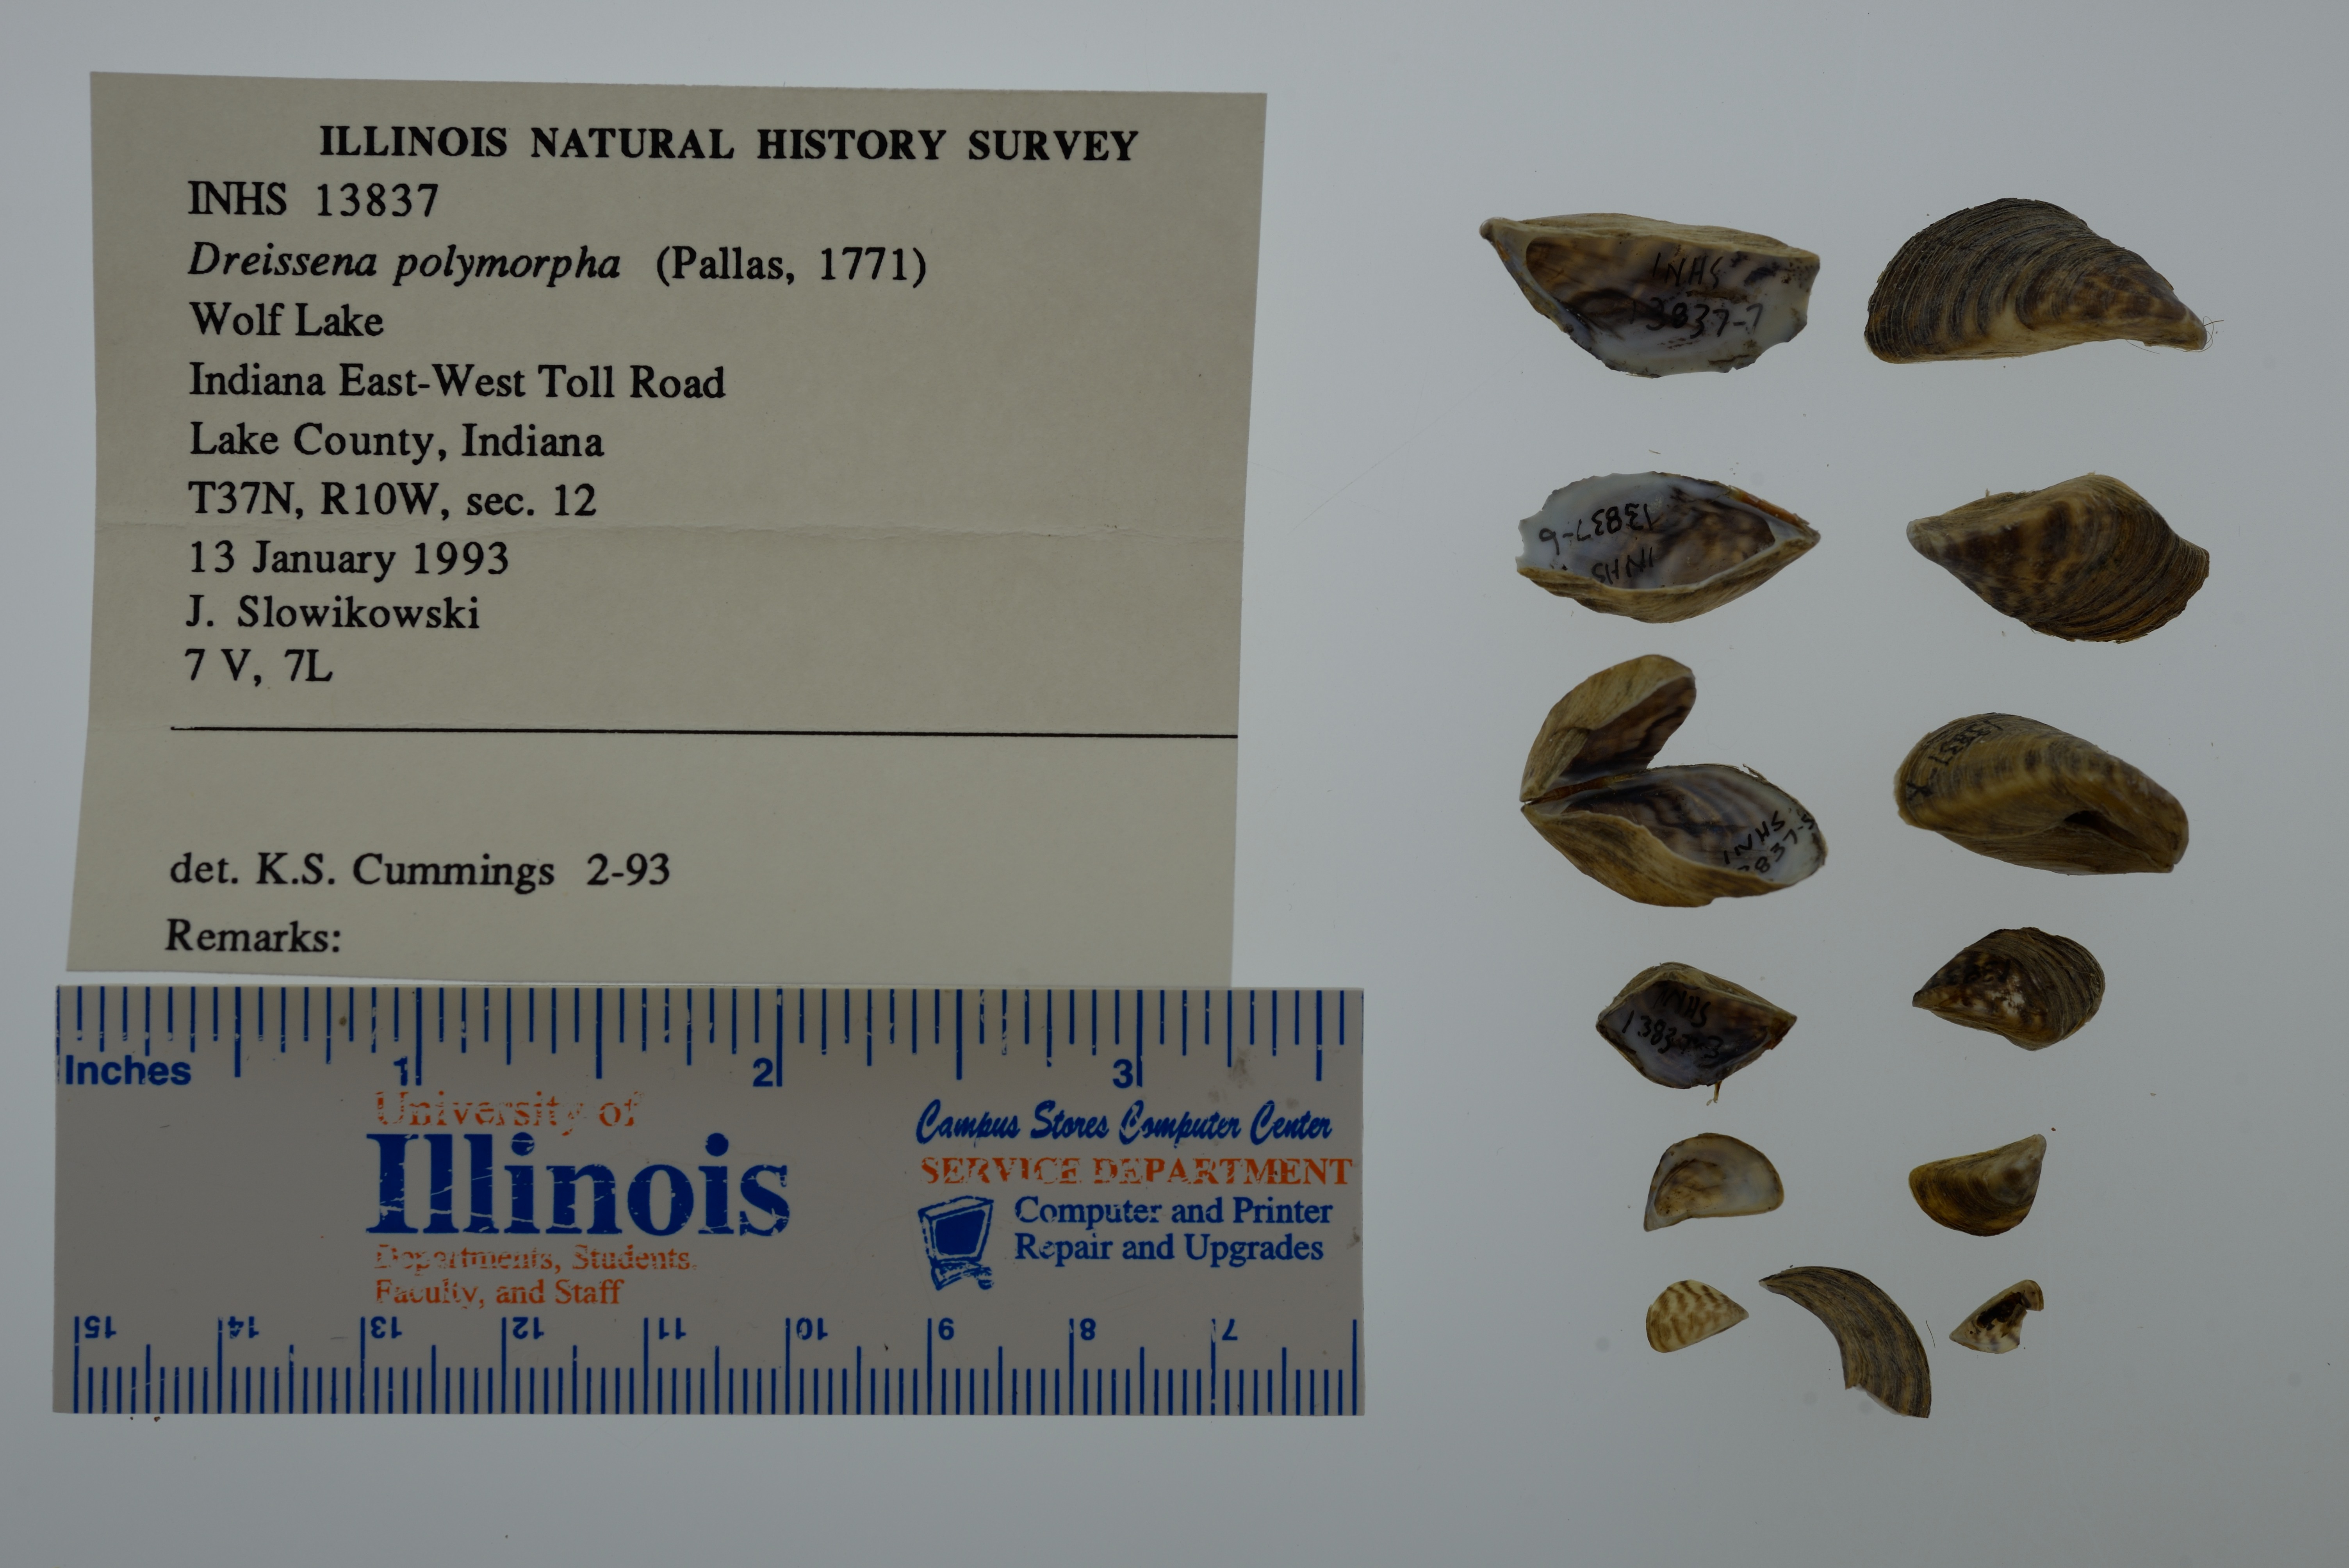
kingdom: Animalia
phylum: Mollusca
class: Bivalvia
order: Myida
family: Dreissenidae
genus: Dreissena
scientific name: Dreissena polymorpha
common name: Zebra mussel
